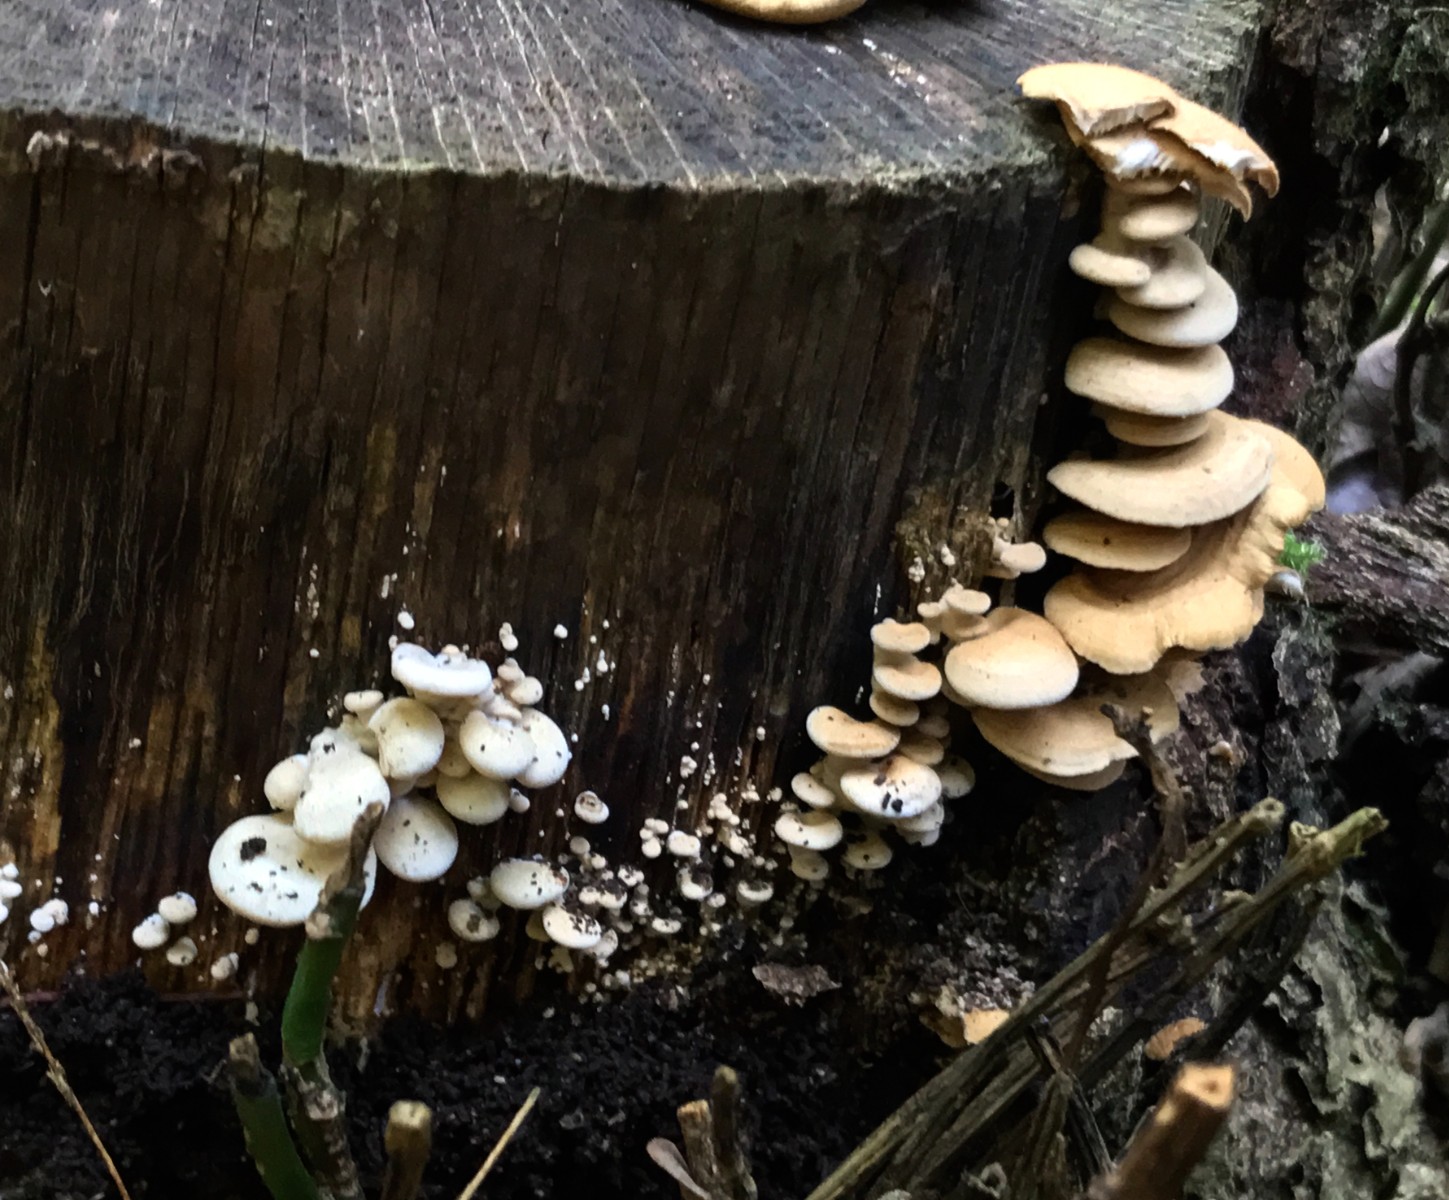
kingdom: Fungi
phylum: Basidiomycota
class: Agaricomycetes
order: Agaricales
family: Mycenaceae
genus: Panellus
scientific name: Panellus stipticus
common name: kliddet epaulethat
